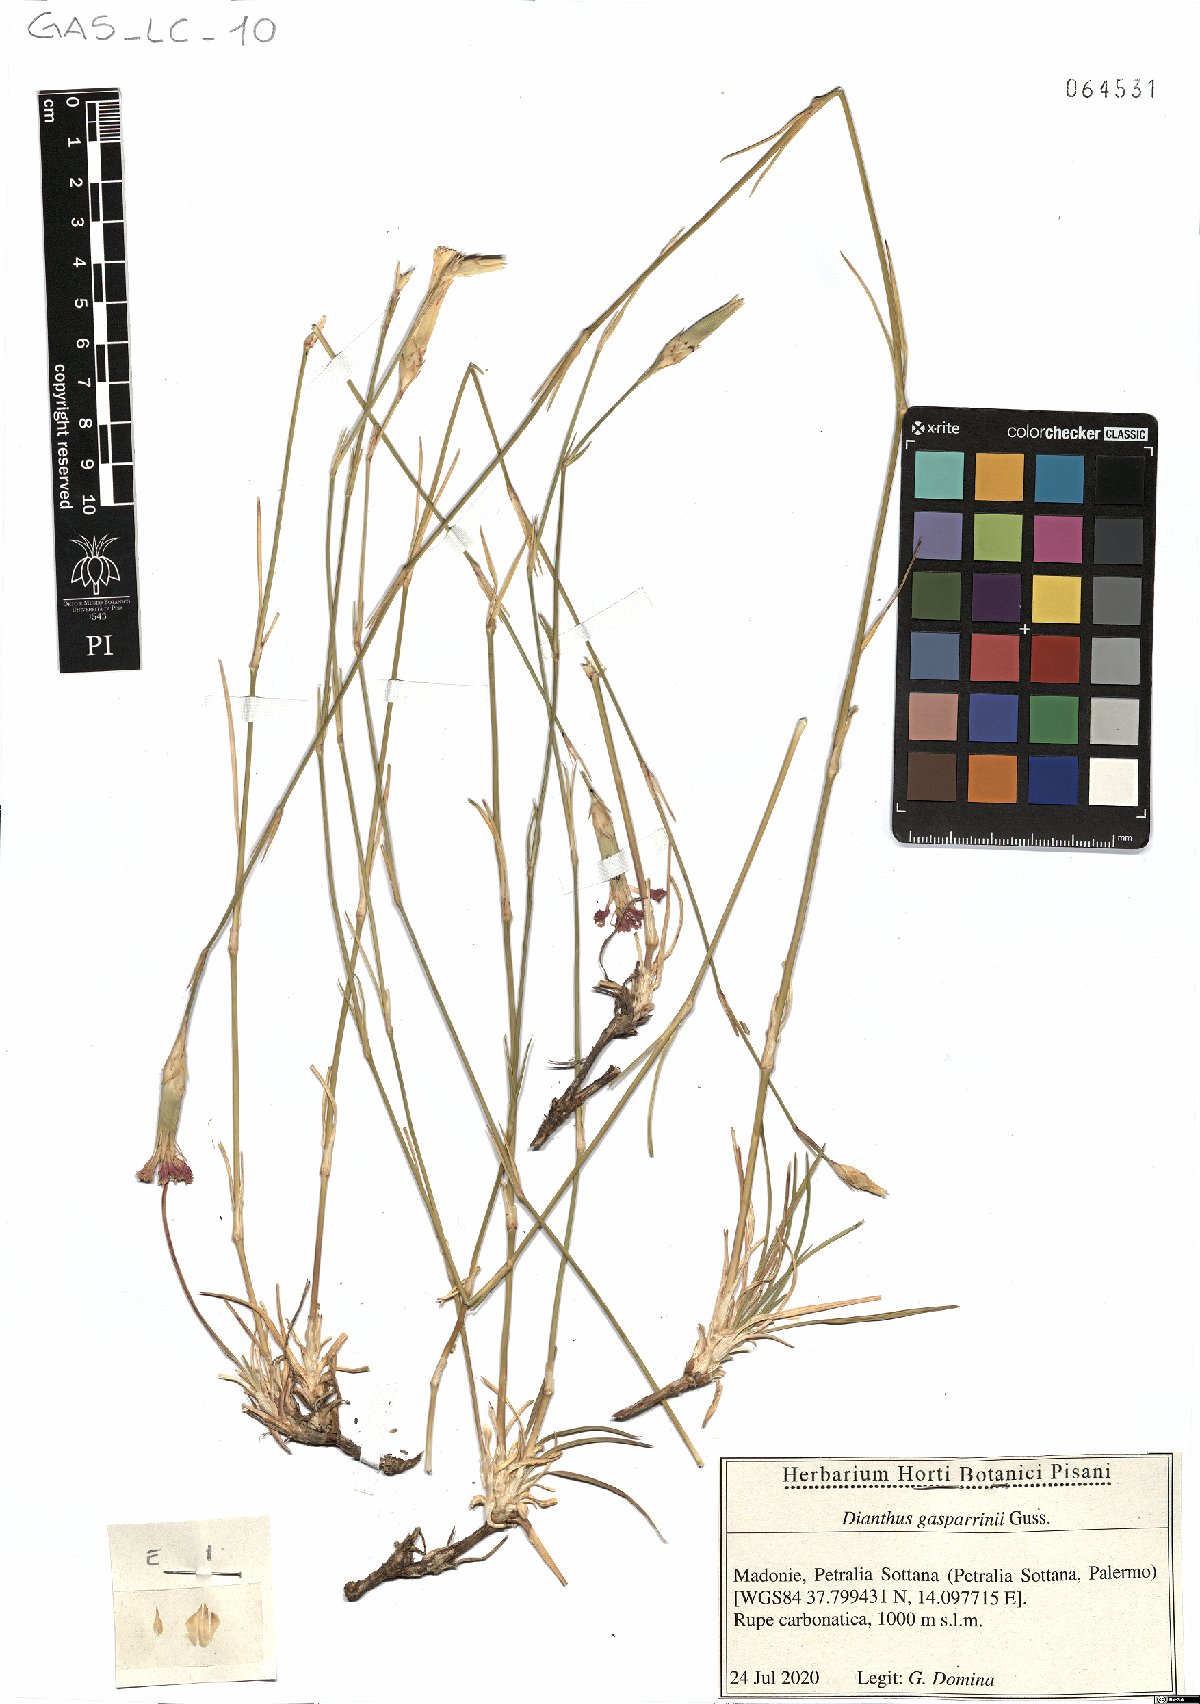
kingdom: Plantae
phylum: Tracheophyta
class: Magnoliopsida
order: Caryophyllales
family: Caryophyllaceae
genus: Dianthus
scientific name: Dianthus gasparrinii
